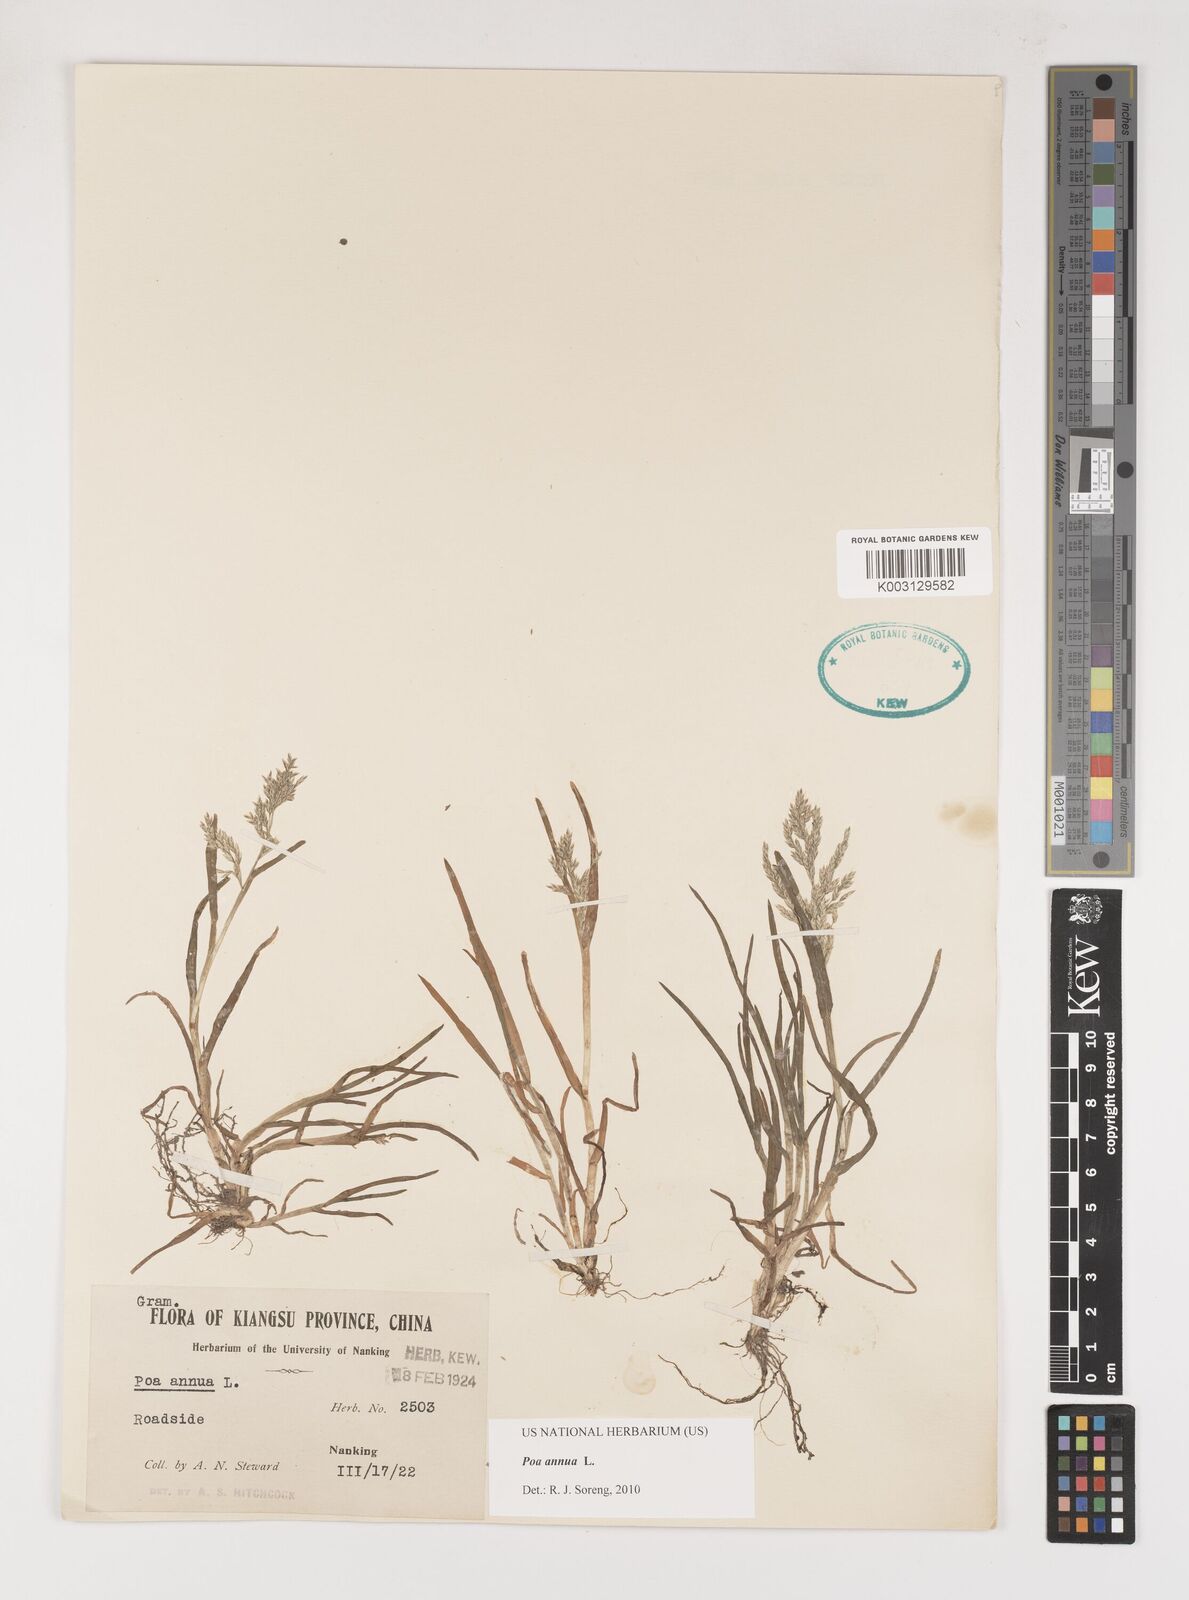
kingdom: Plantae
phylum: Tracheophyta
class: Liliopsida
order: Poales
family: Poaceae
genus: Poa
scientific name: Poa annua
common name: Annual bluegrass
